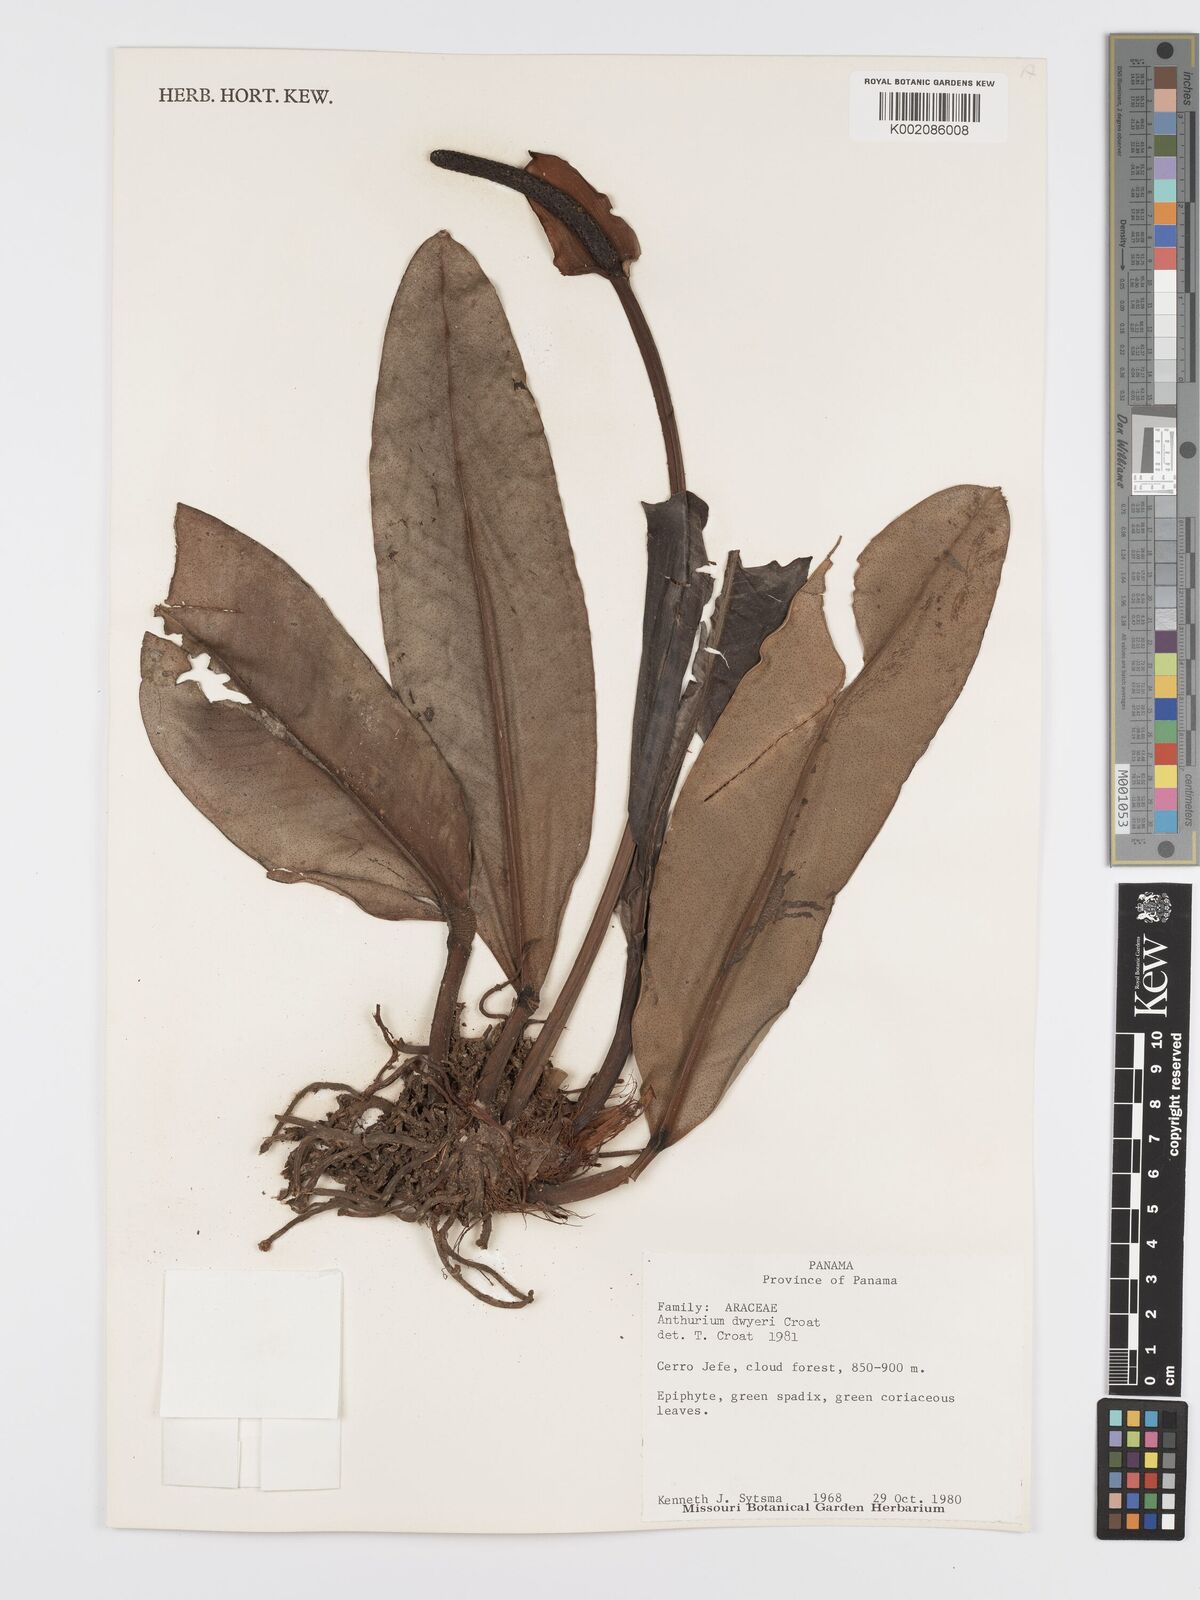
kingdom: Plantae
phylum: Tracheophyta
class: Liliopsida
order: Alismatales
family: Araceae
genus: Anthurium
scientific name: Anthurium dwyeri
